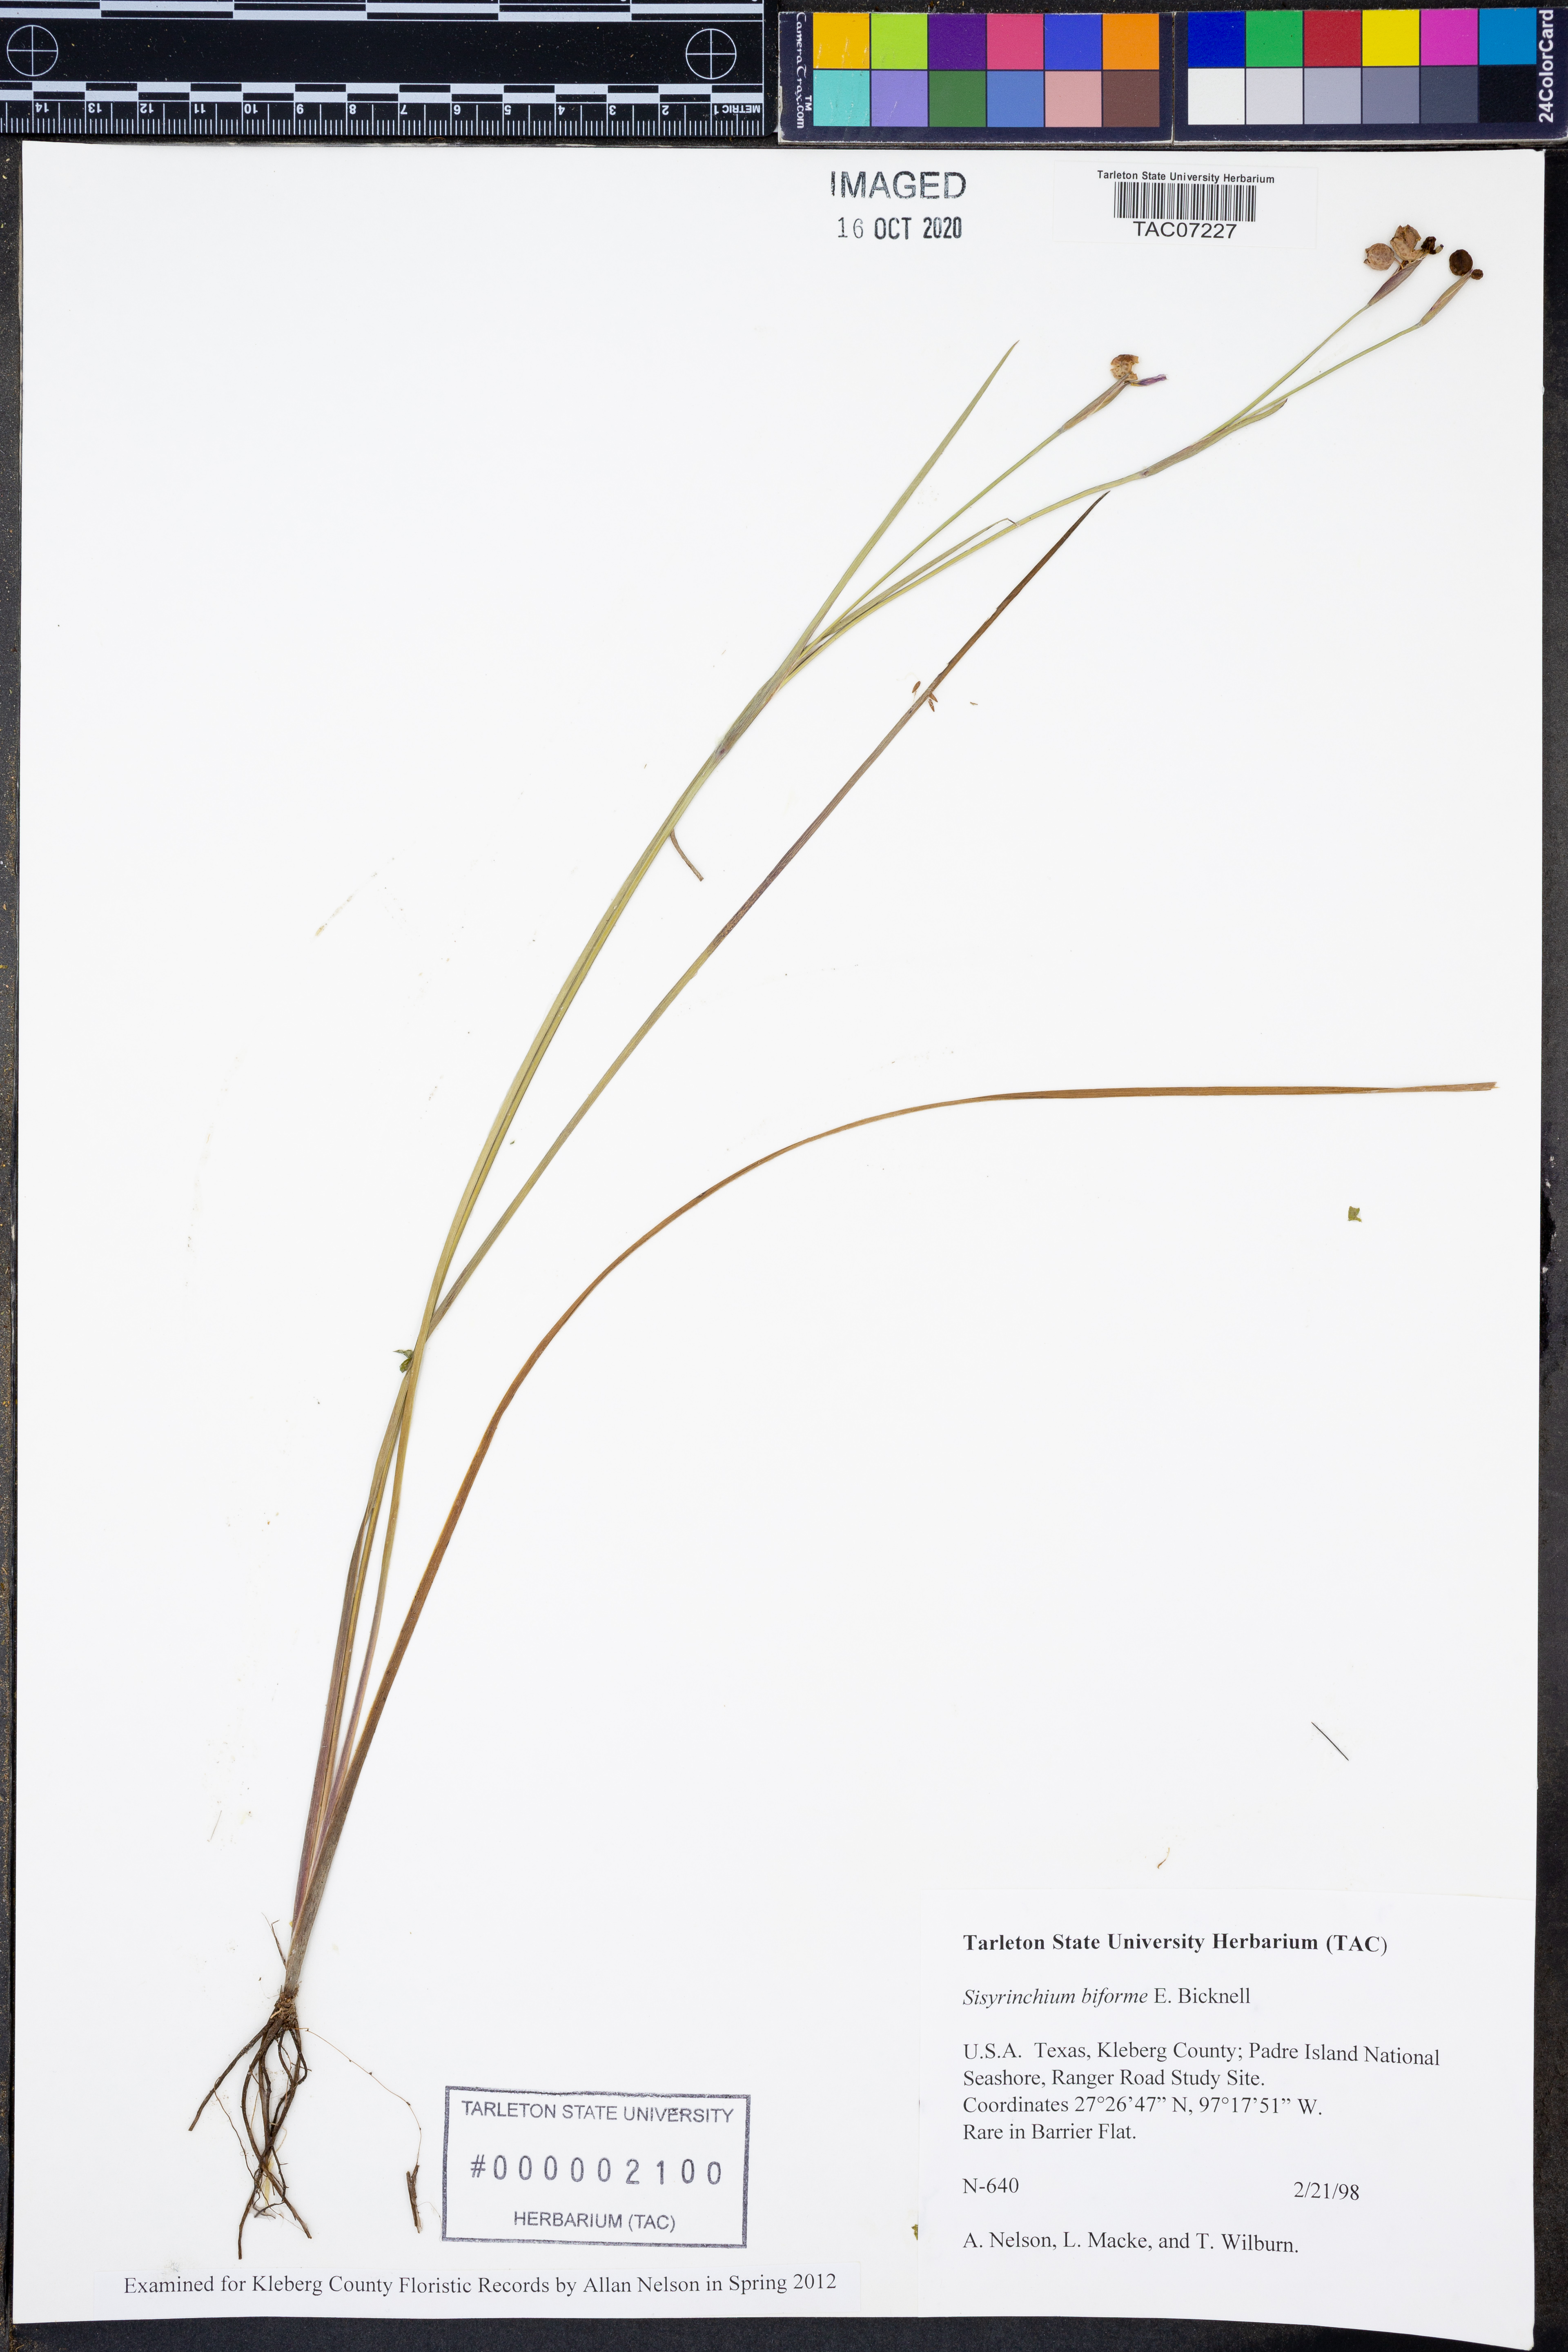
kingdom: Plantae
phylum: Tracheophyta
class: Liliopsida
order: Asparagales
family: Iridaceae
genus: Sisyrinchium
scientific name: Sisyrinchium biforme
